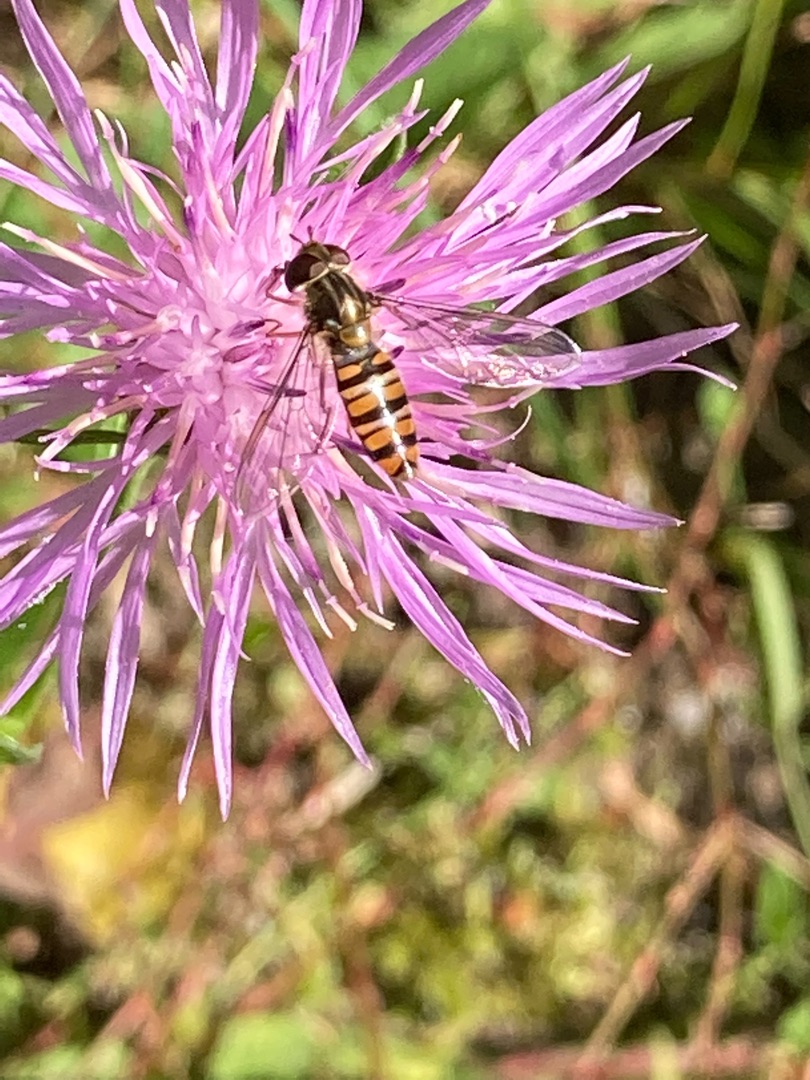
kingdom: Animalia
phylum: Arthropoda
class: Insecta
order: Diptera
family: Syrphidae
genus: Episyrphus
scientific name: Episyrphus balteatus
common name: Dobbeltbåndet svirreflue
